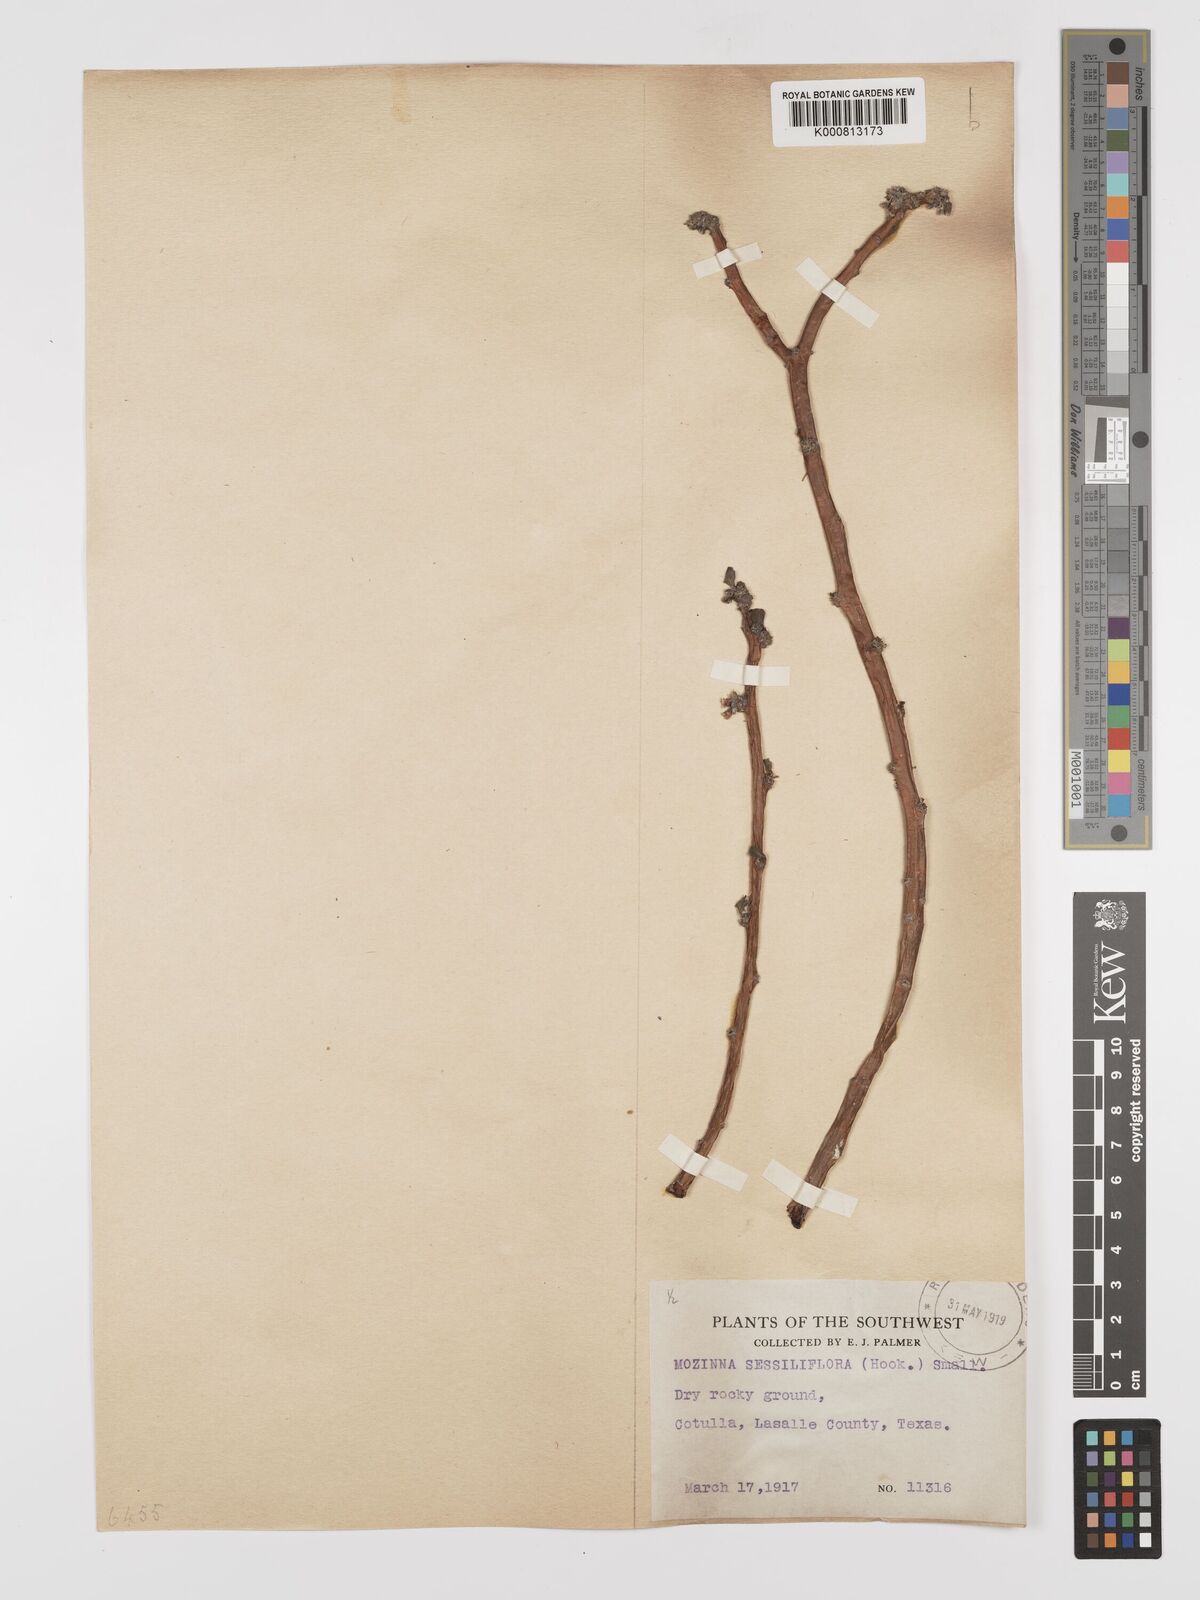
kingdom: Plantae
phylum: Tracheophyta
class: Magnoliopsida
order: Malpighiales
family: Euphorbiaceae
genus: Jatropha
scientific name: Jatropha
